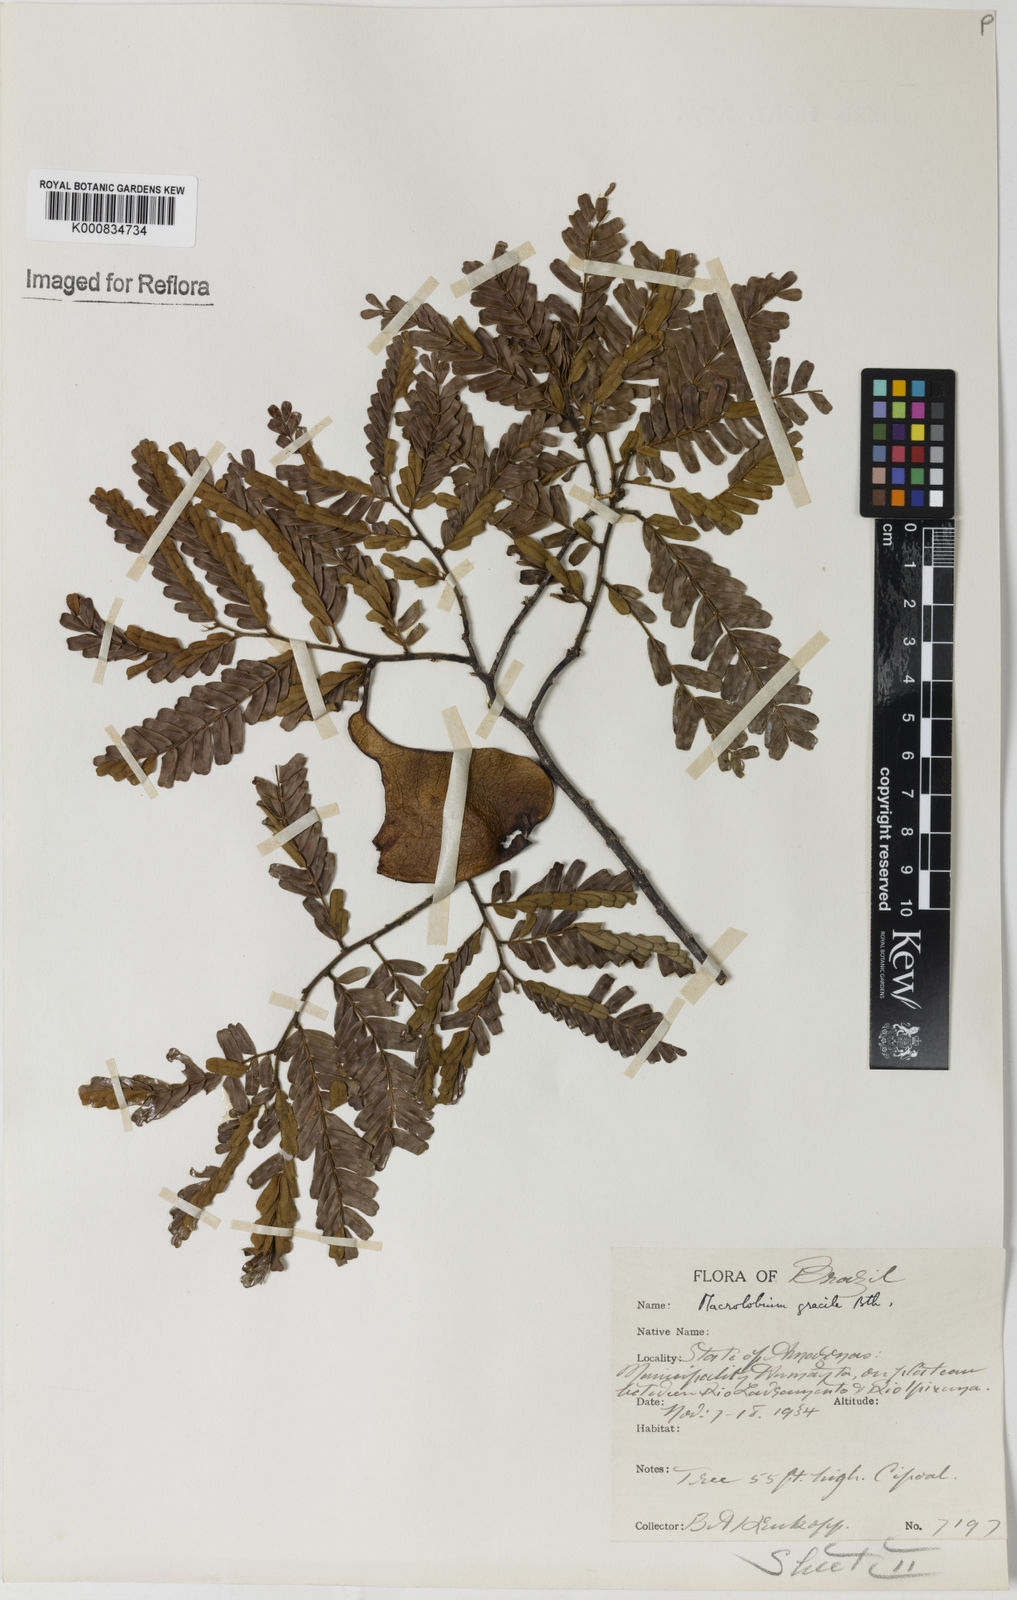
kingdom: Plantae
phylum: Tracheophyta
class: Magnoliopsida
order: Fabales
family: Fabaceae
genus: Macrolobium
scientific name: Macrolobium
